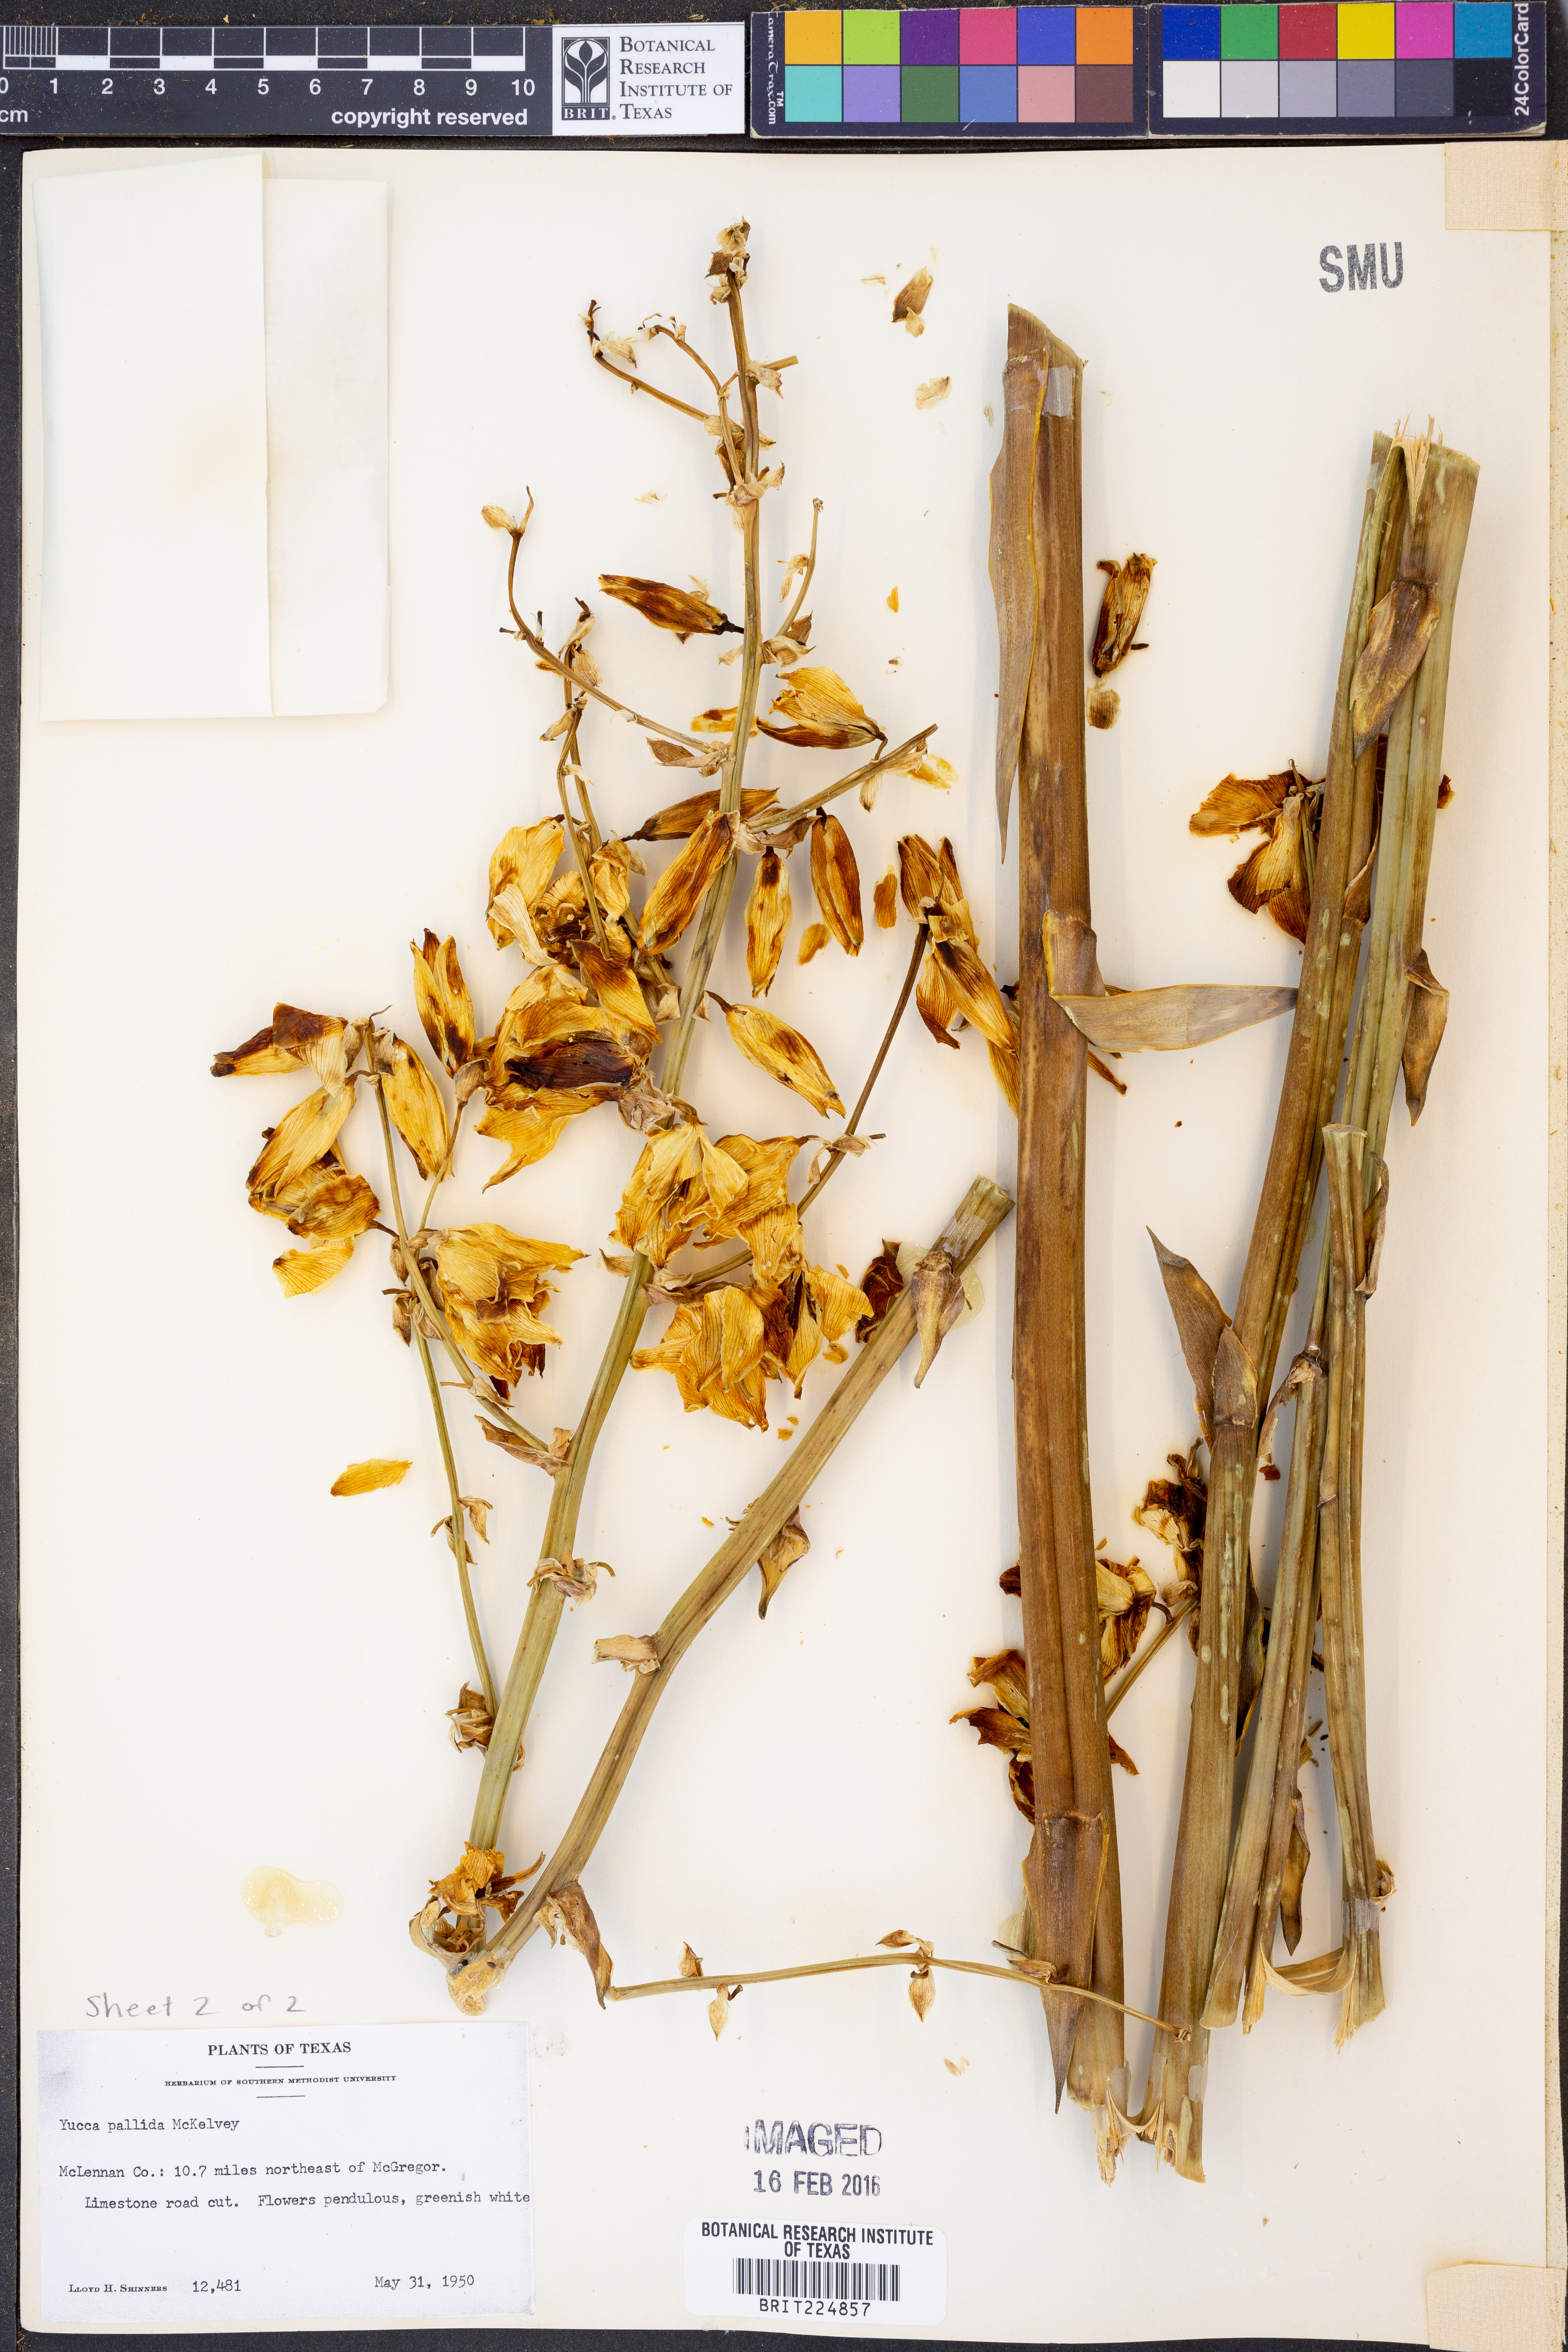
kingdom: Plantae
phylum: Tracheophyta
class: Liliopsida
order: Asparagales
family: Asparagaceae
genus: Yucca
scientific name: Yucca pallida
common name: Pale leaf yucca
